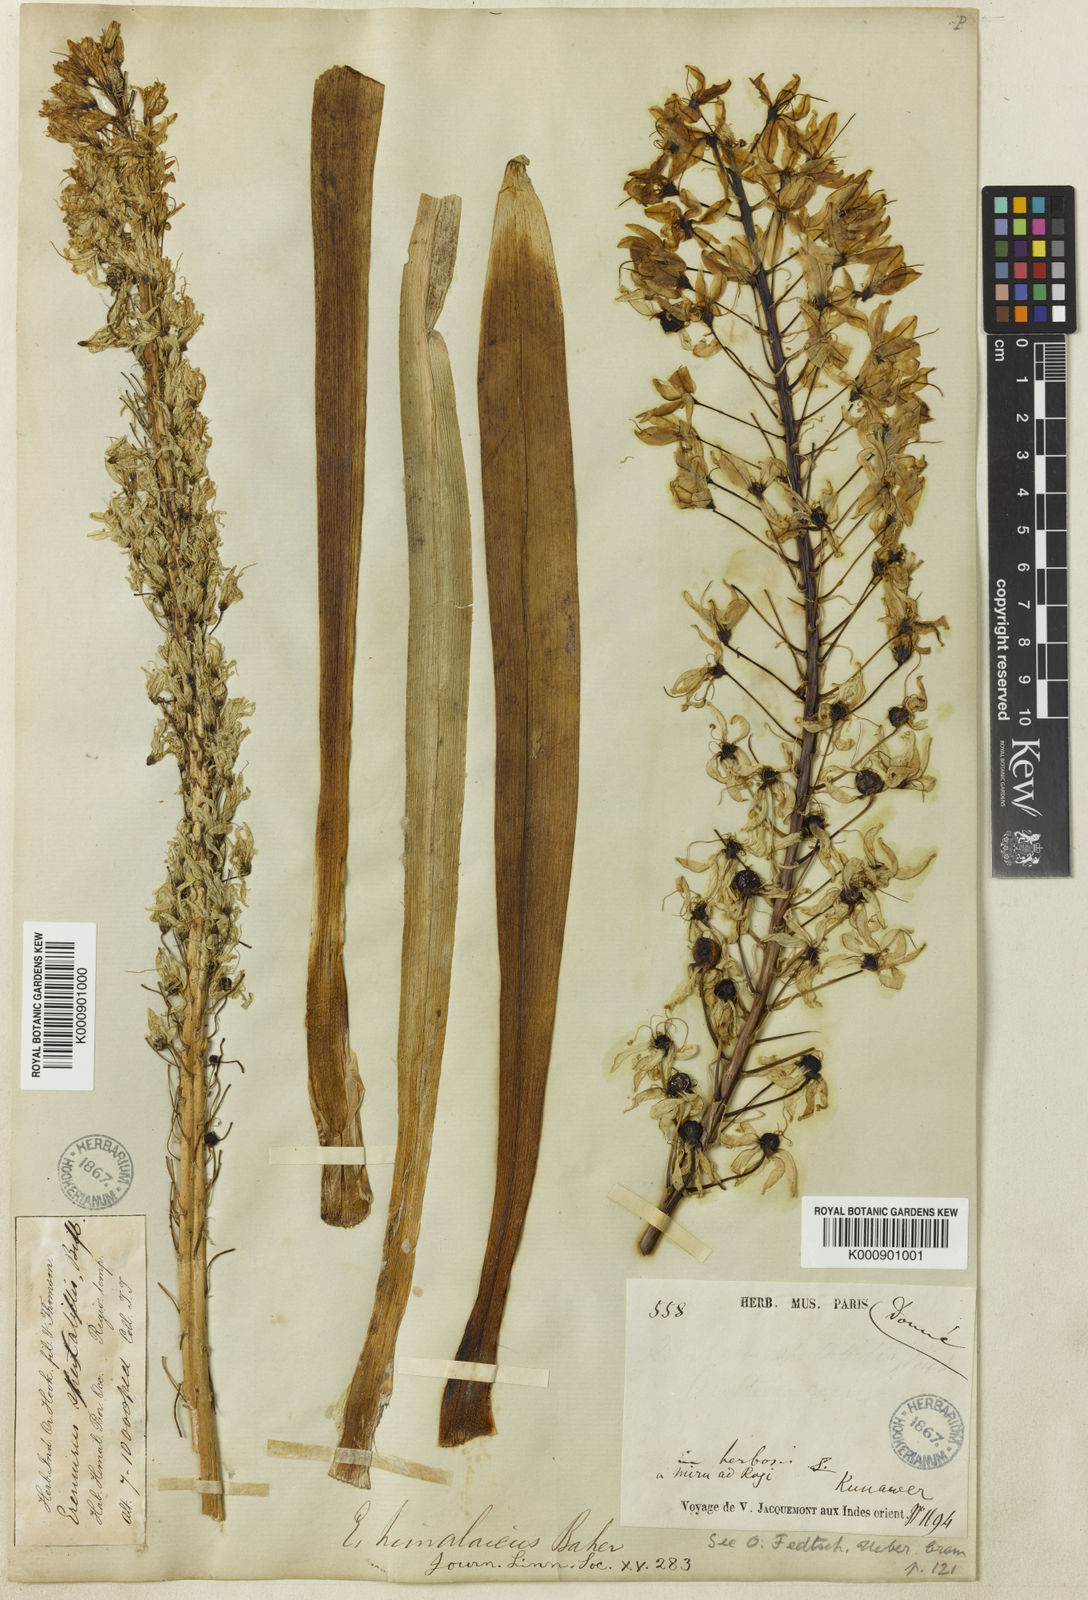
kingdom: Plantae
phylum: Tracheophyta
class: Liliopsida
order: Asparagales
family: Asphodelaceae
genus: Eremurus
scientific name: Eremurus himalaicus
